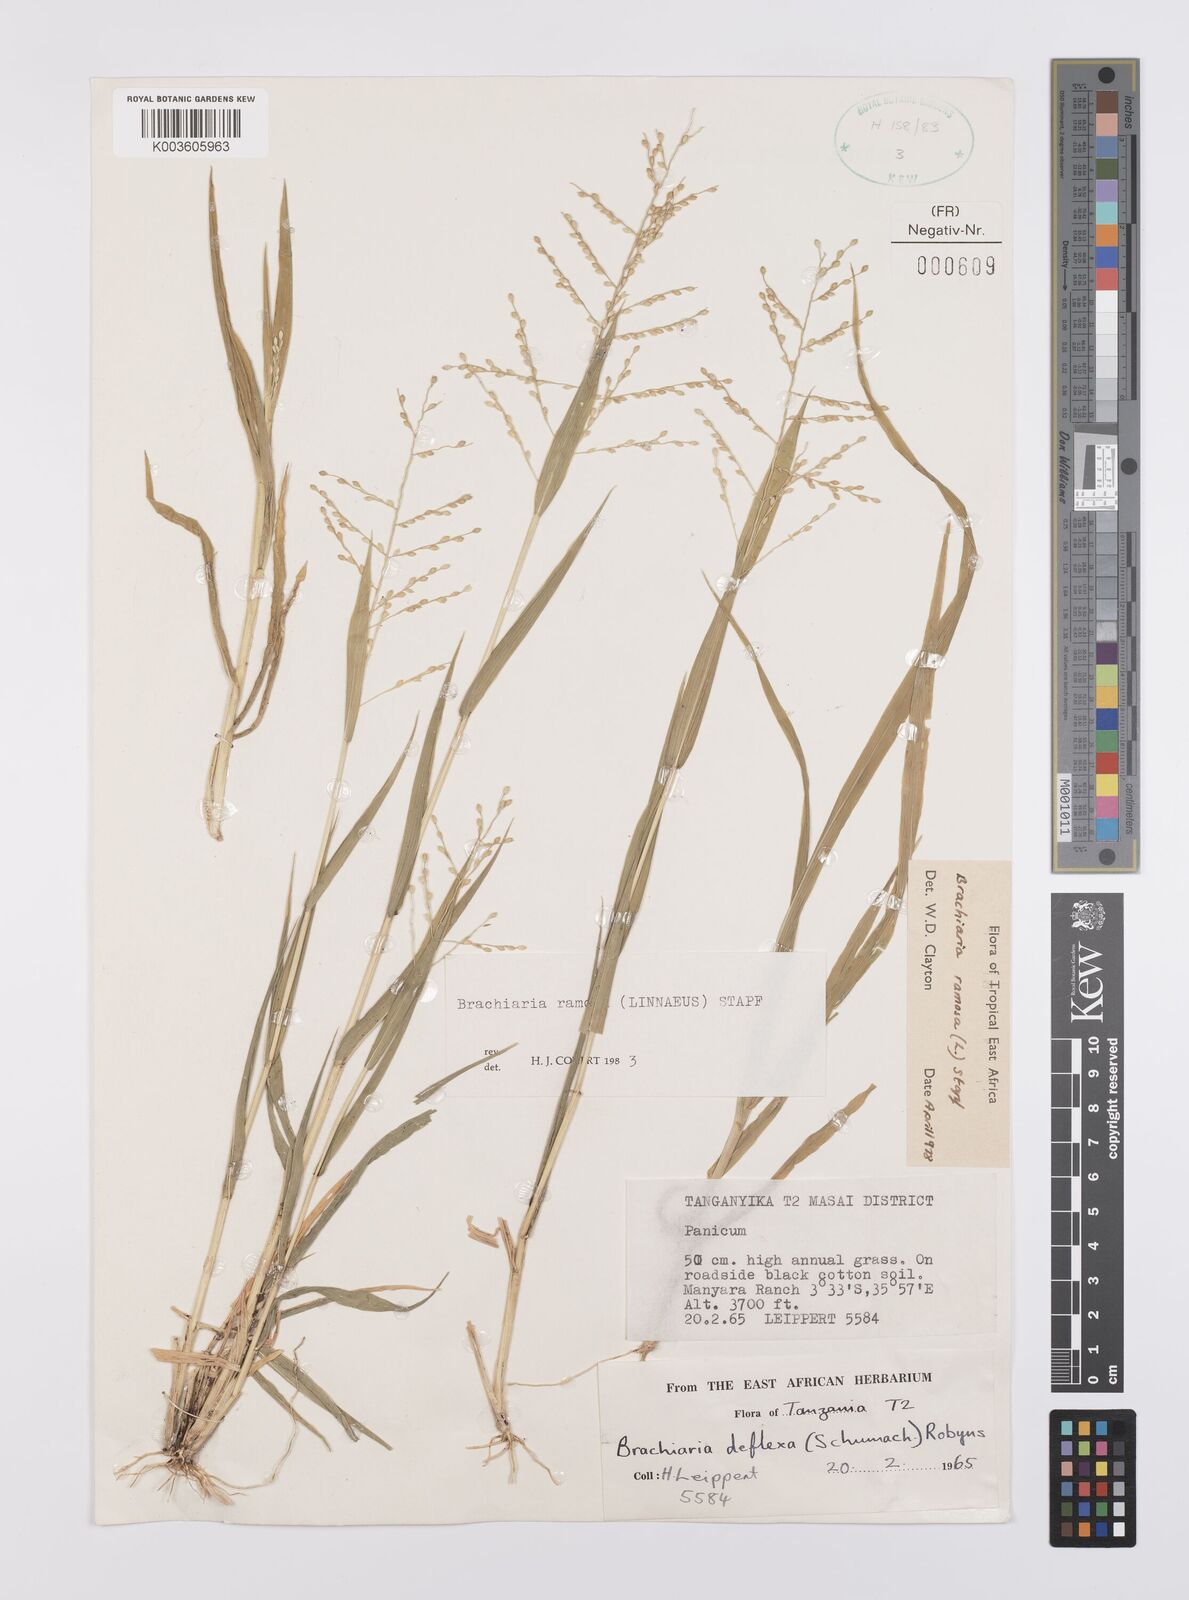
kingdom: Plantae
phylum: Tracheophyta
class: Liliopsida
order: Poales
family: Poaceae
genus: Urochloa
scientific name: Urochloa ramosa
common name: Browntop millet
